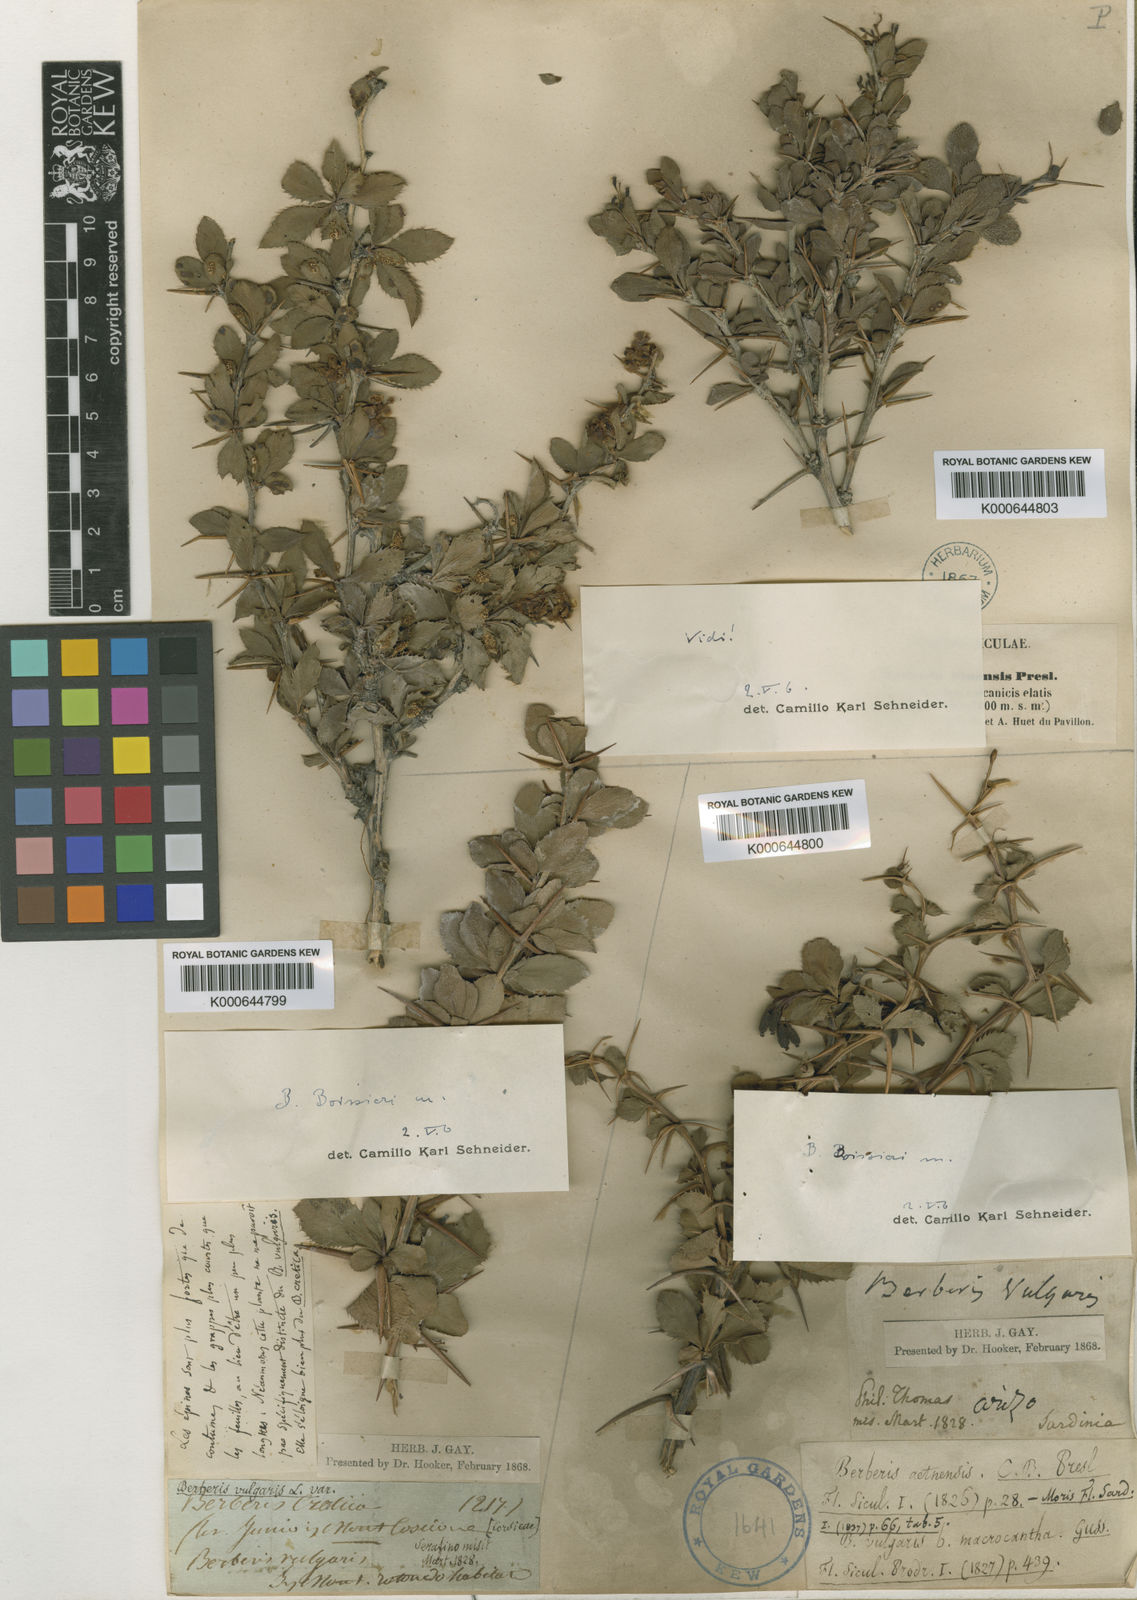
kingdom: Plantae
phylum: Tracheophyta
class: Magnoliopsida
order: Ranunculales
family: Berberidaceae
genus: Berberis
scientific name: Berberis
